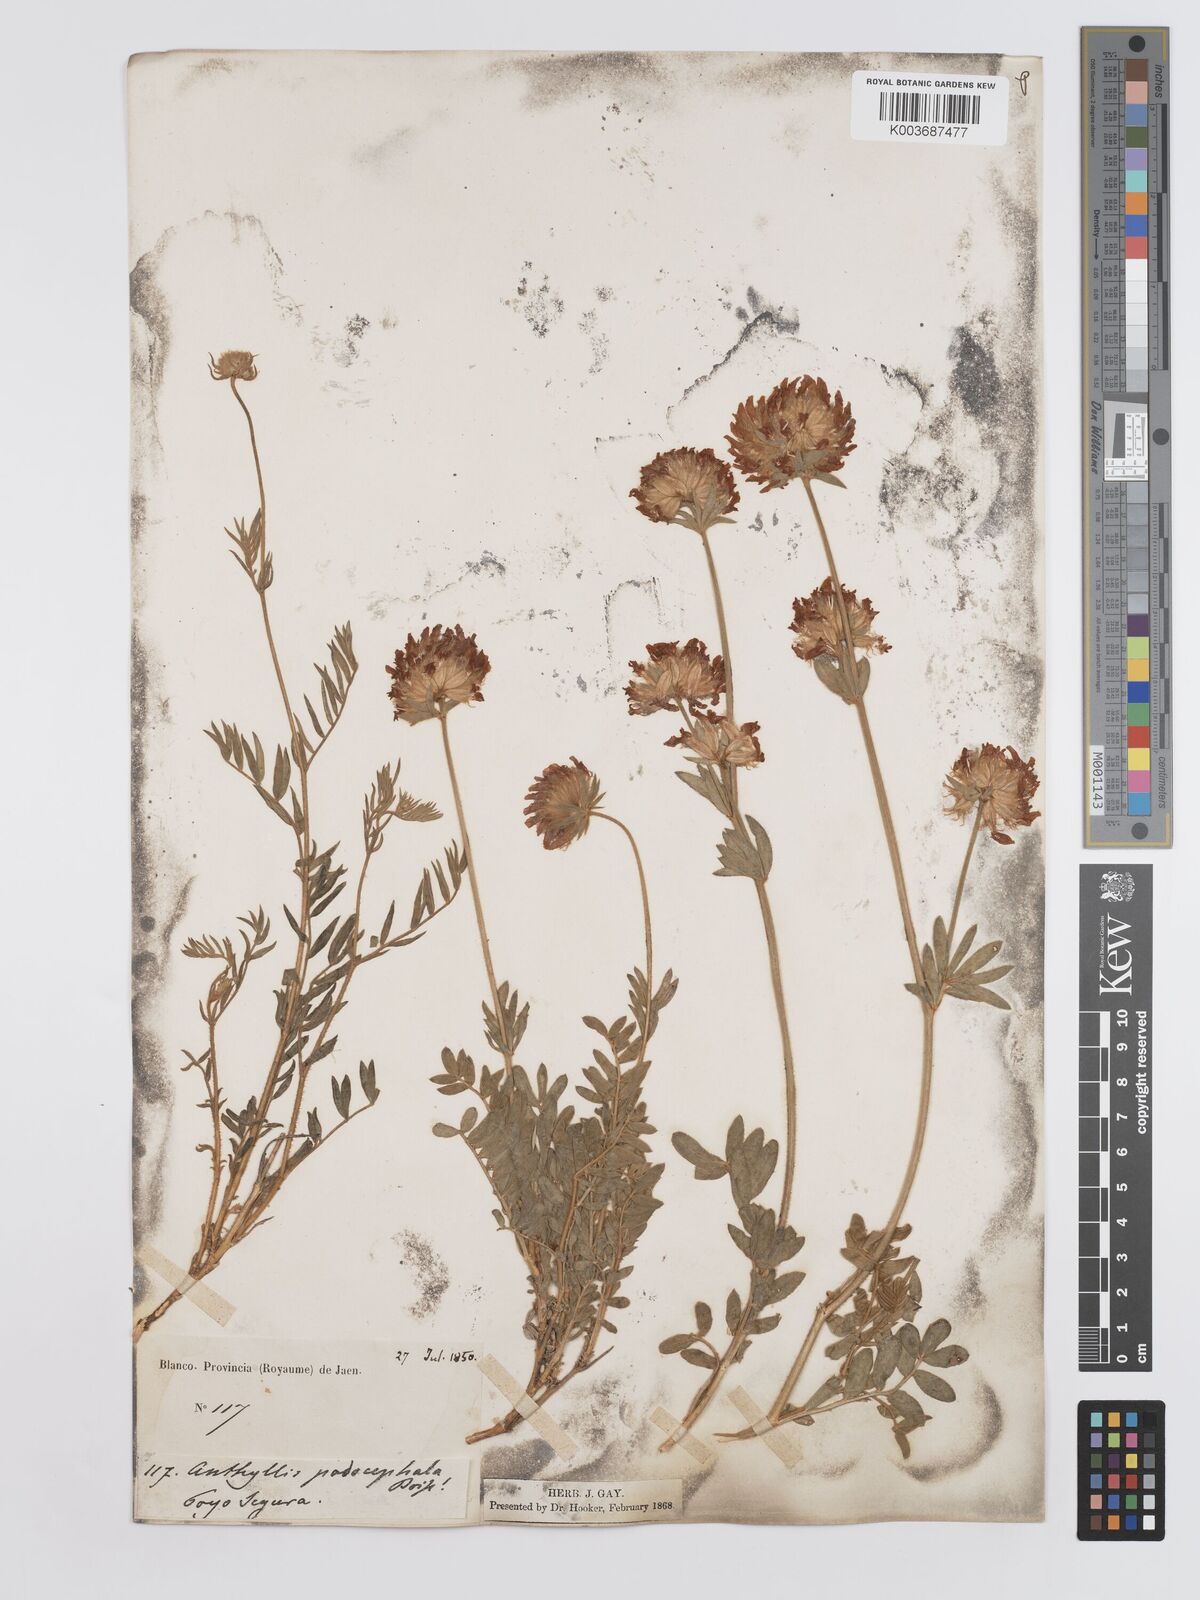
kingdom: Plantae
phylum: Tracheophyta
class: Magnoliopsida
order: Fabales
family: Fabaceae
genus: Anthyllis
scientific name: Anthyllis rupestris
